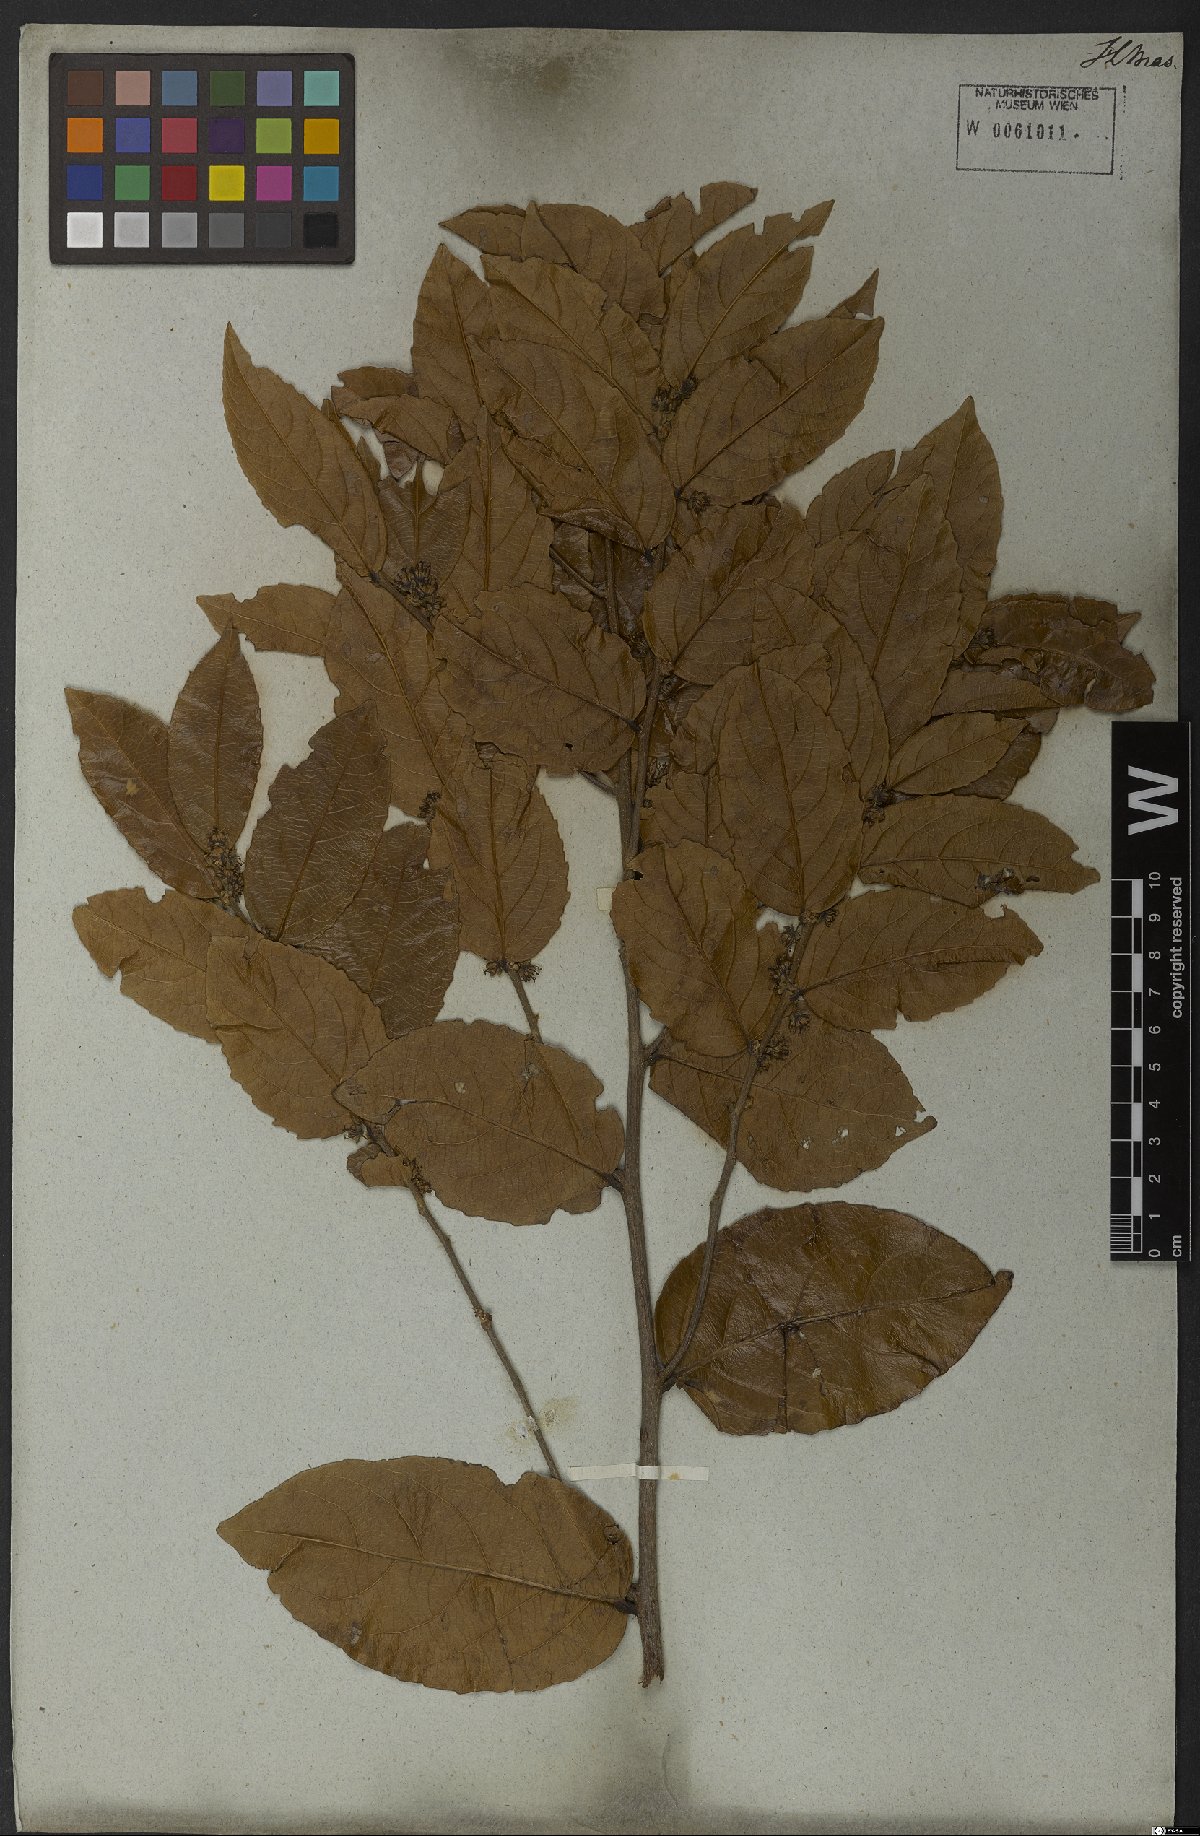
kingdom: Plantae
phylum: Tracheophyta
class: Magnoliopsida
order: Malpighiales
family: Salicaceae
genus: Casearia
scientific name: Casearia
